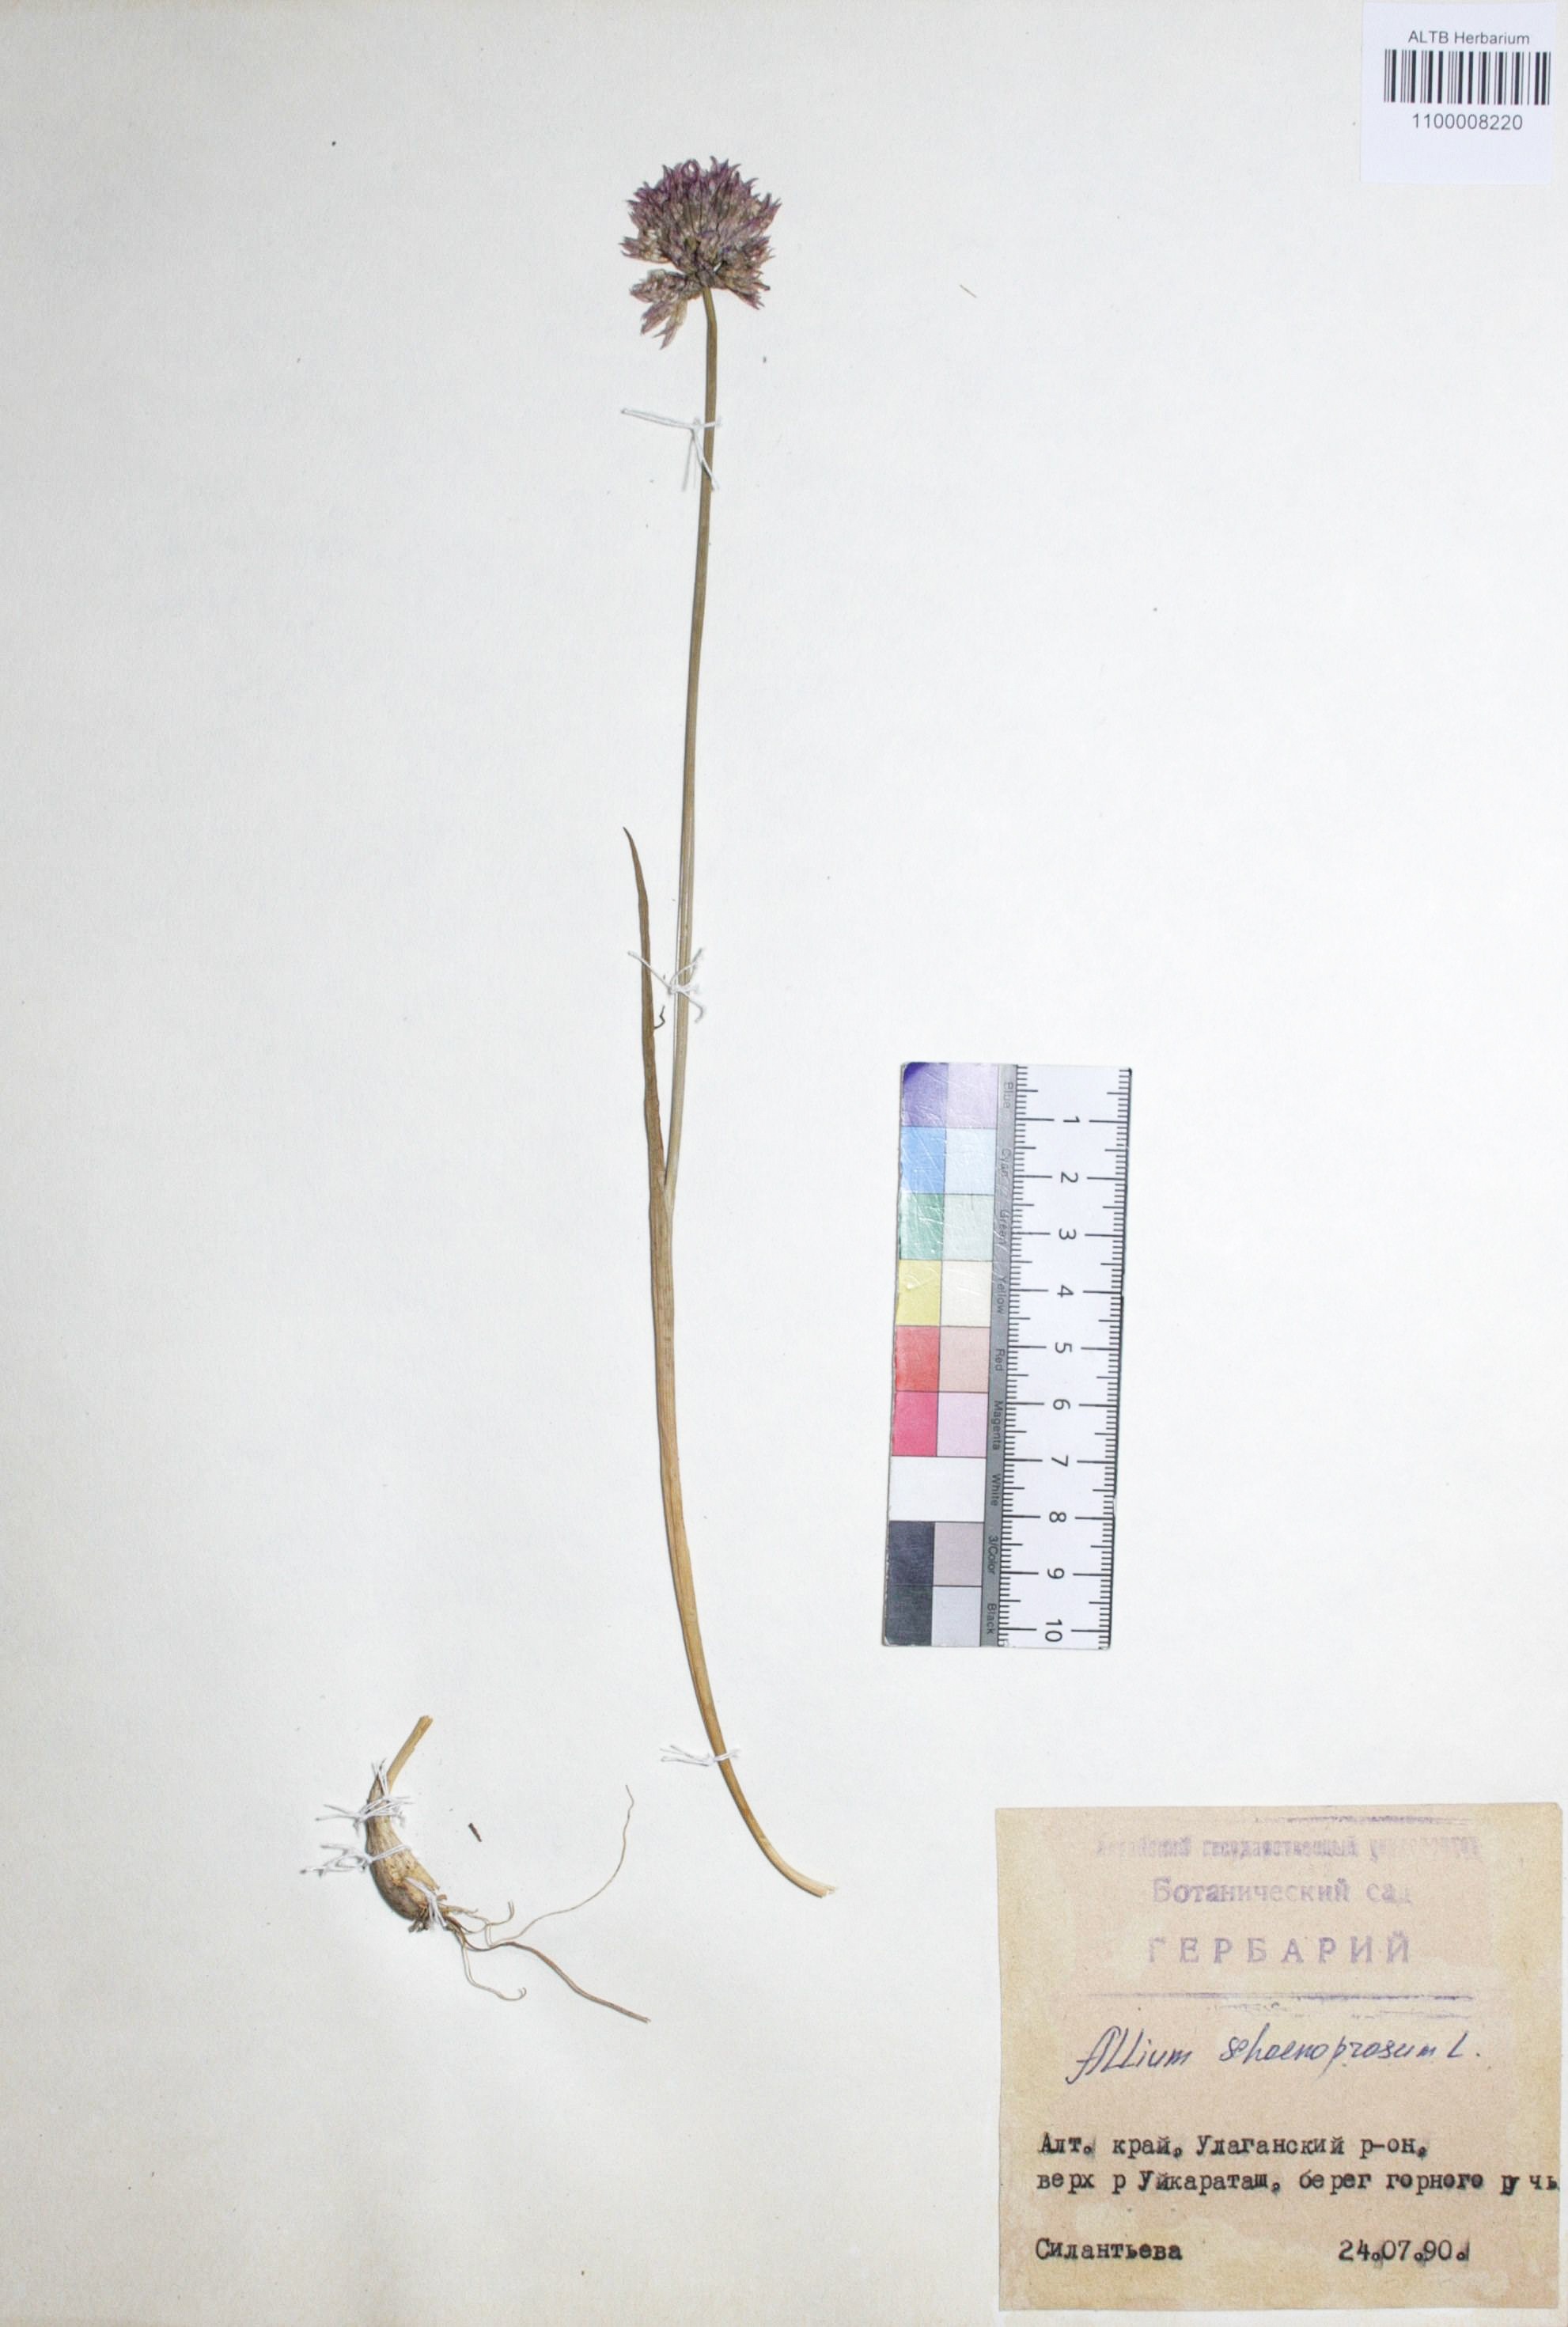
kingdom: Plantae
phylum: Tracheophyta
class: Liliopsida
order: Asparagales
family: Amaryllidaceae
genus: Allium
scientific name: Allium schoenoprasum
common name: Chives
